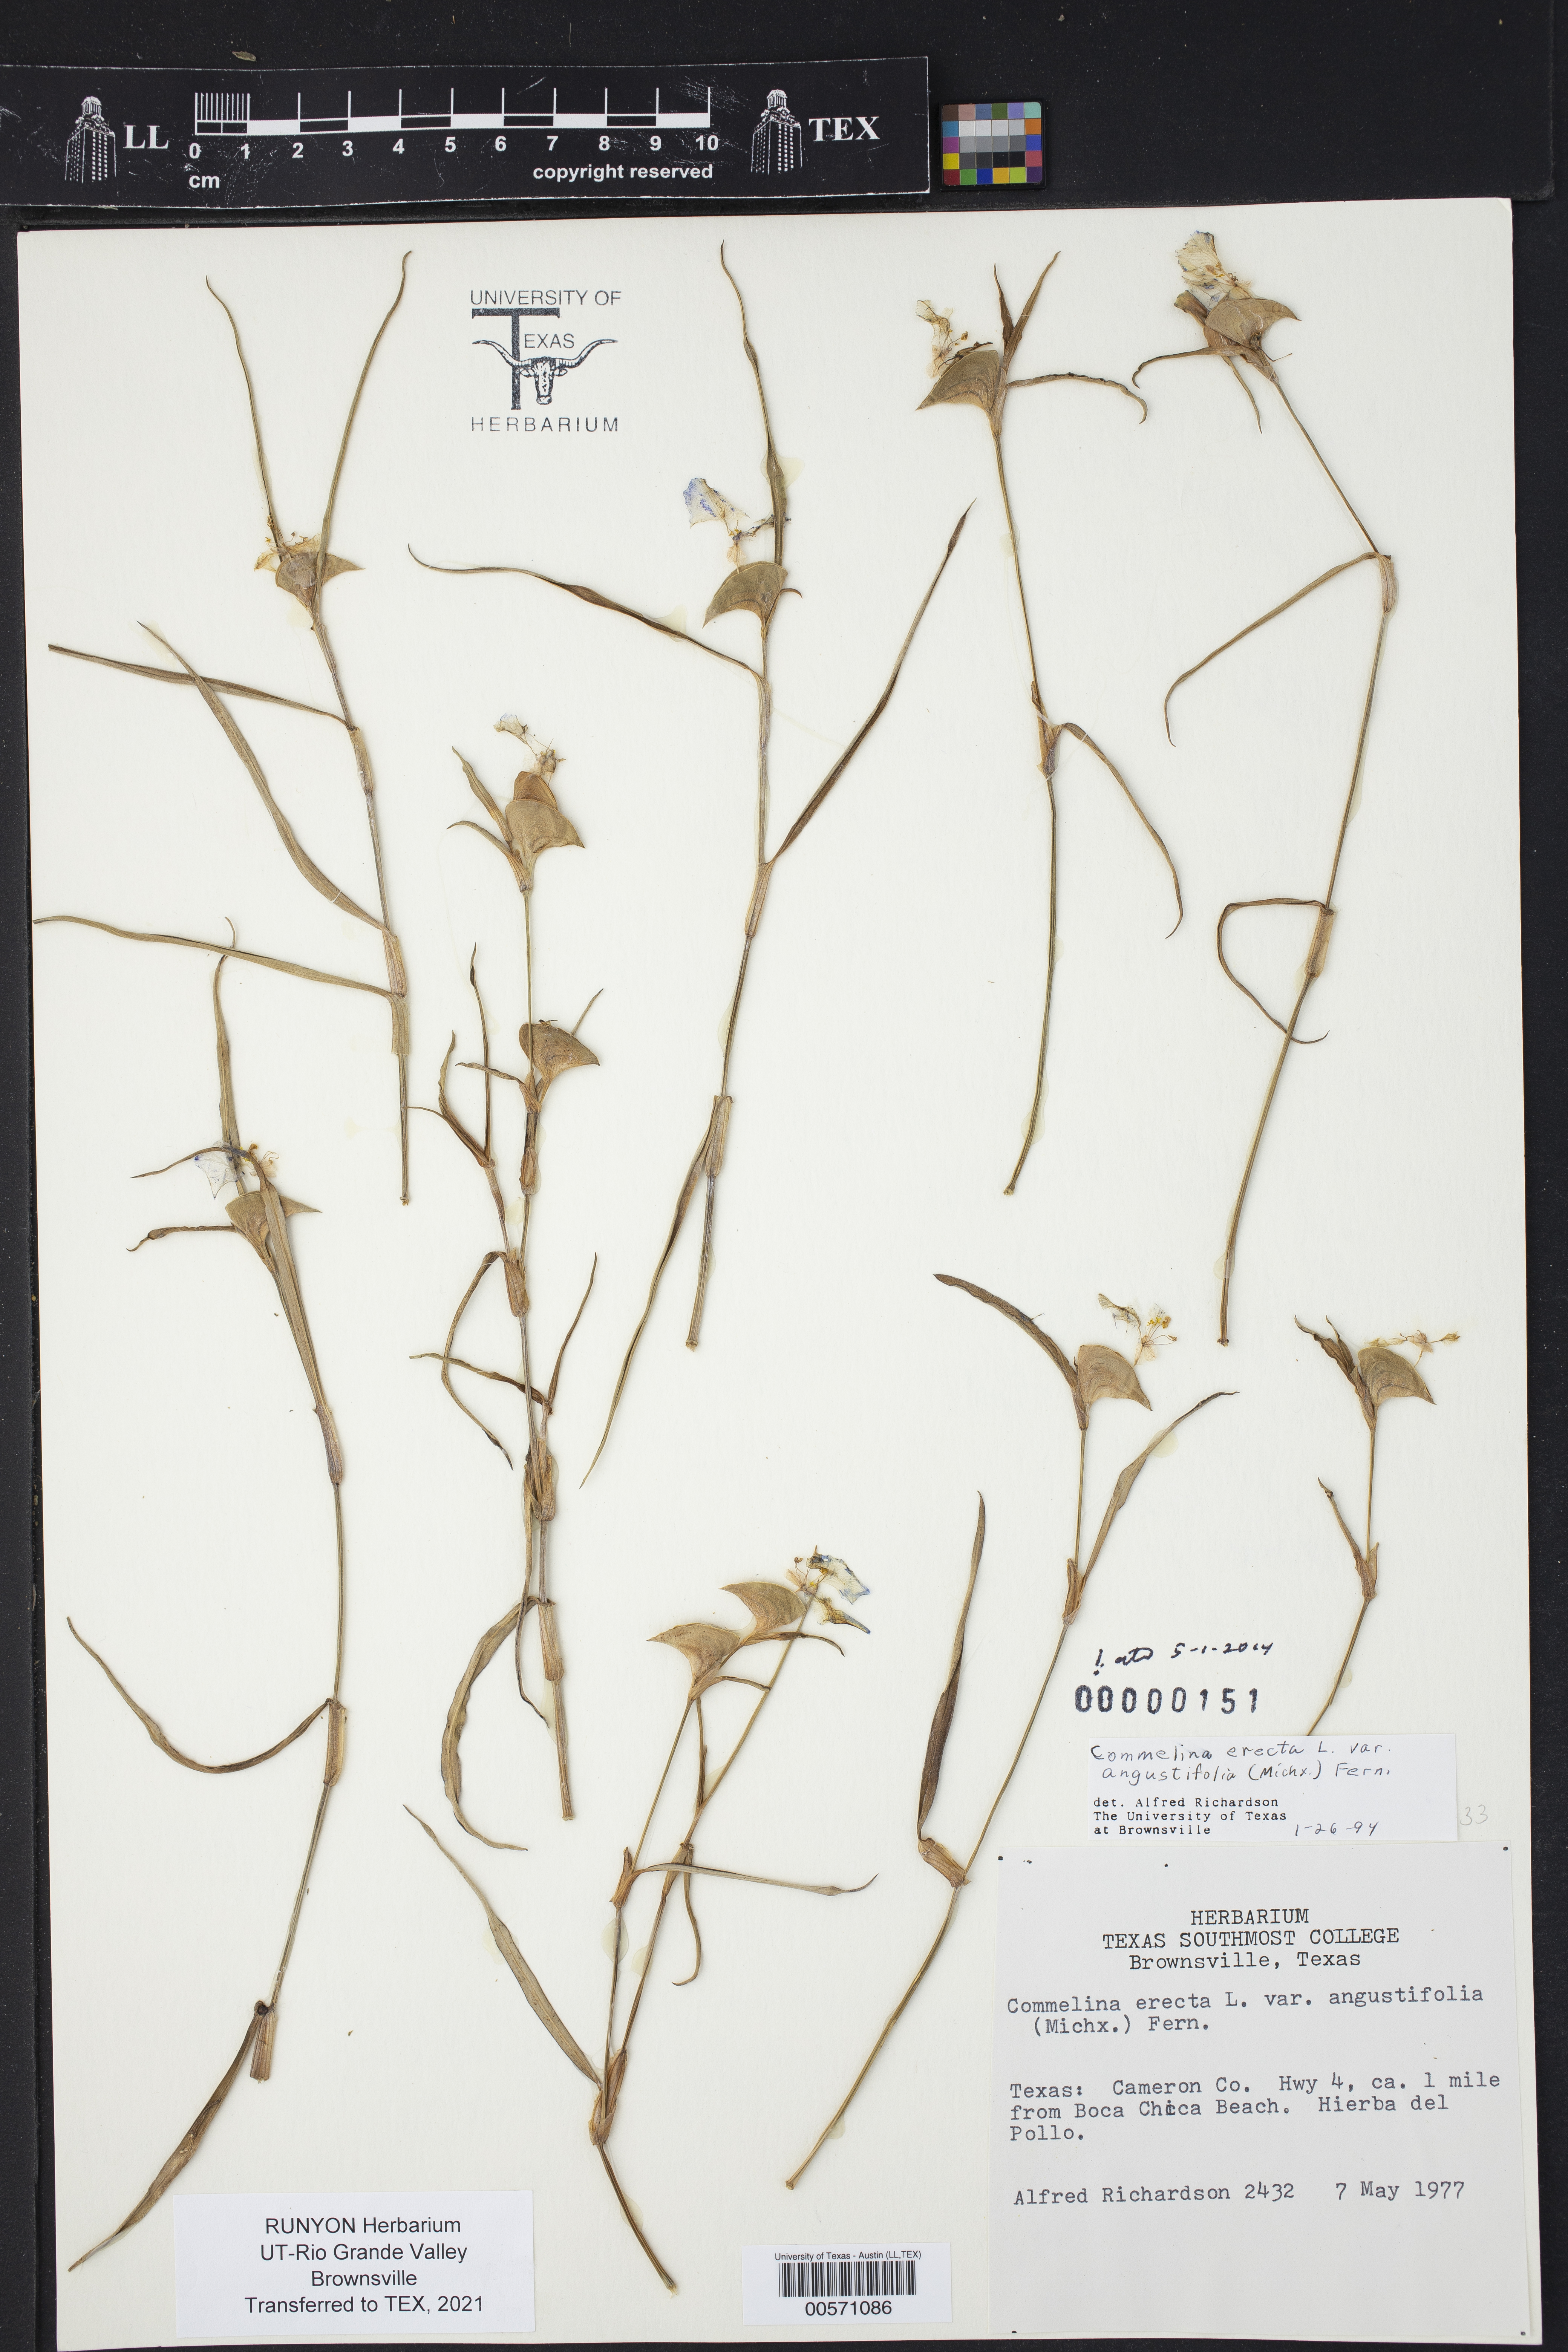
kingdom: Plantae
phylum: Tracheophyta
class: Liliopsida
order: Commelinales
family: Commelinaceae
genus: Commelina
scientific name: Commelina erecta
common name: Blousel blommetjie
